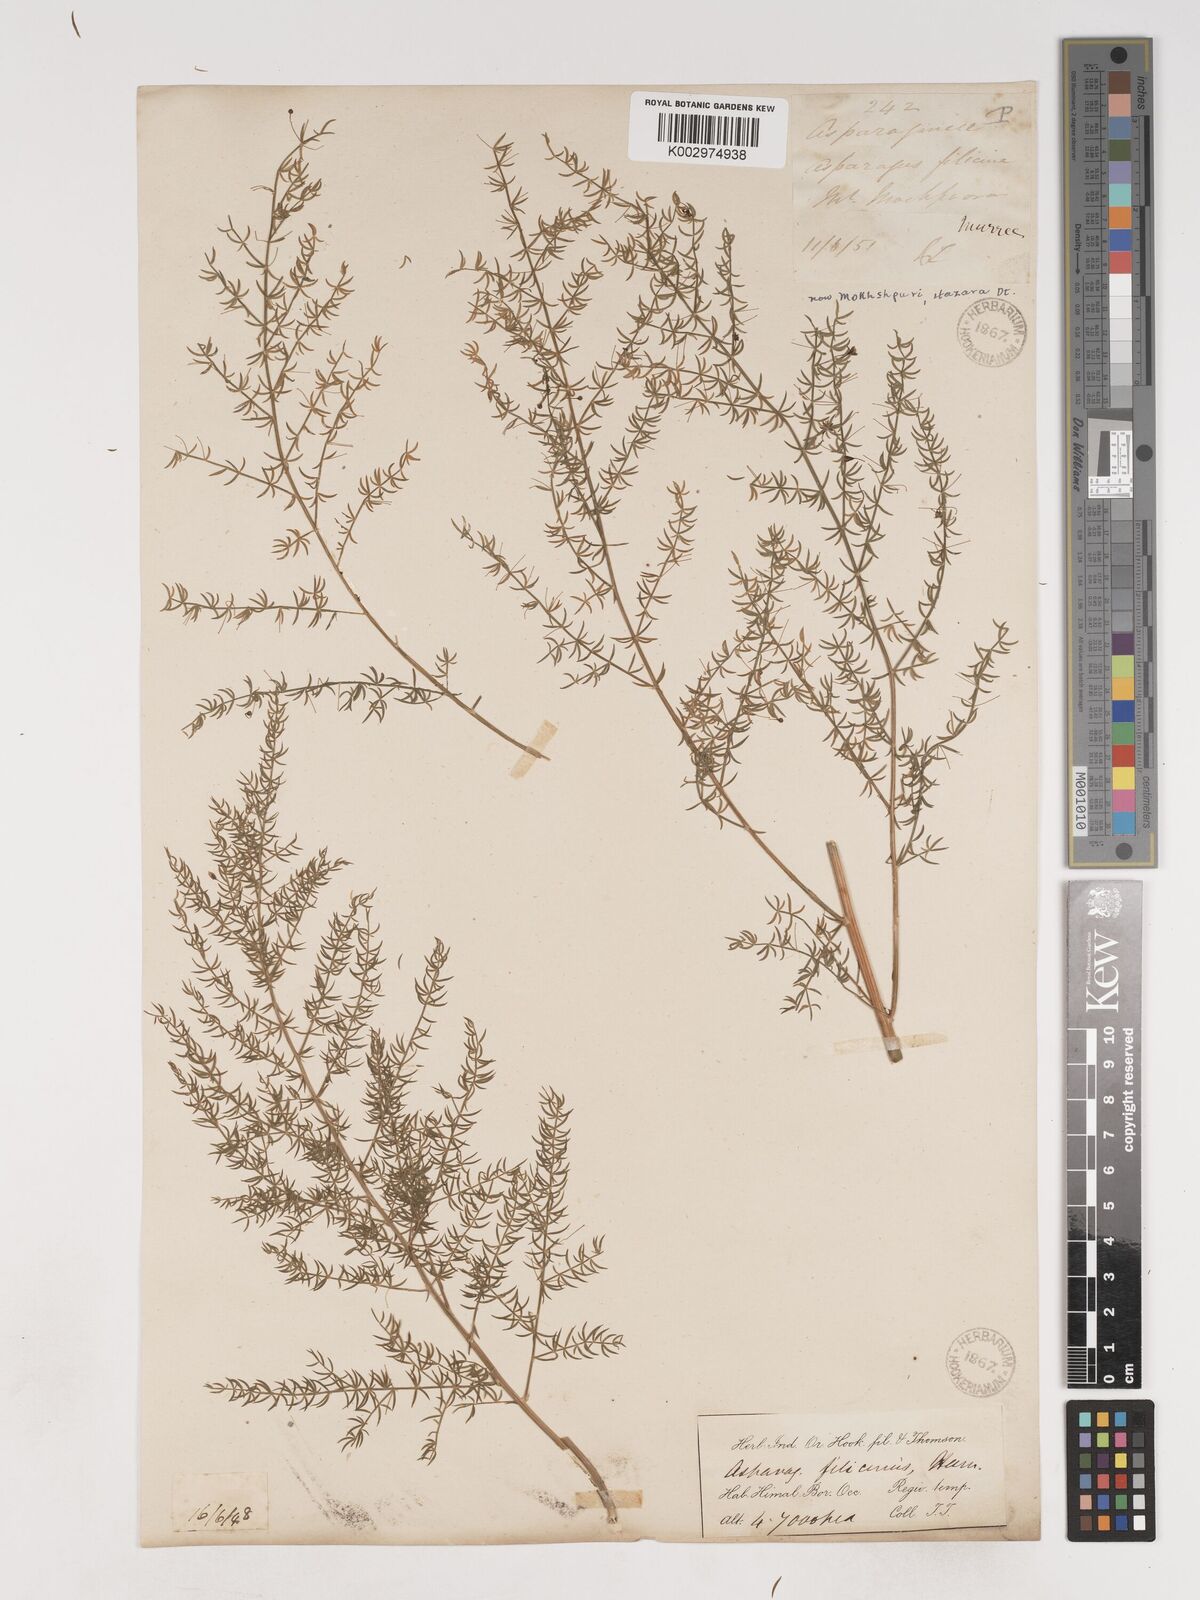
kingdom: Plantae
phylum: Tracheophyta
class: Liliopsida
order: Asparagales
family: Asparagaceae
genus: Asparagus
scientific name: Asparagus filicinus
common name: Fern asparagus
